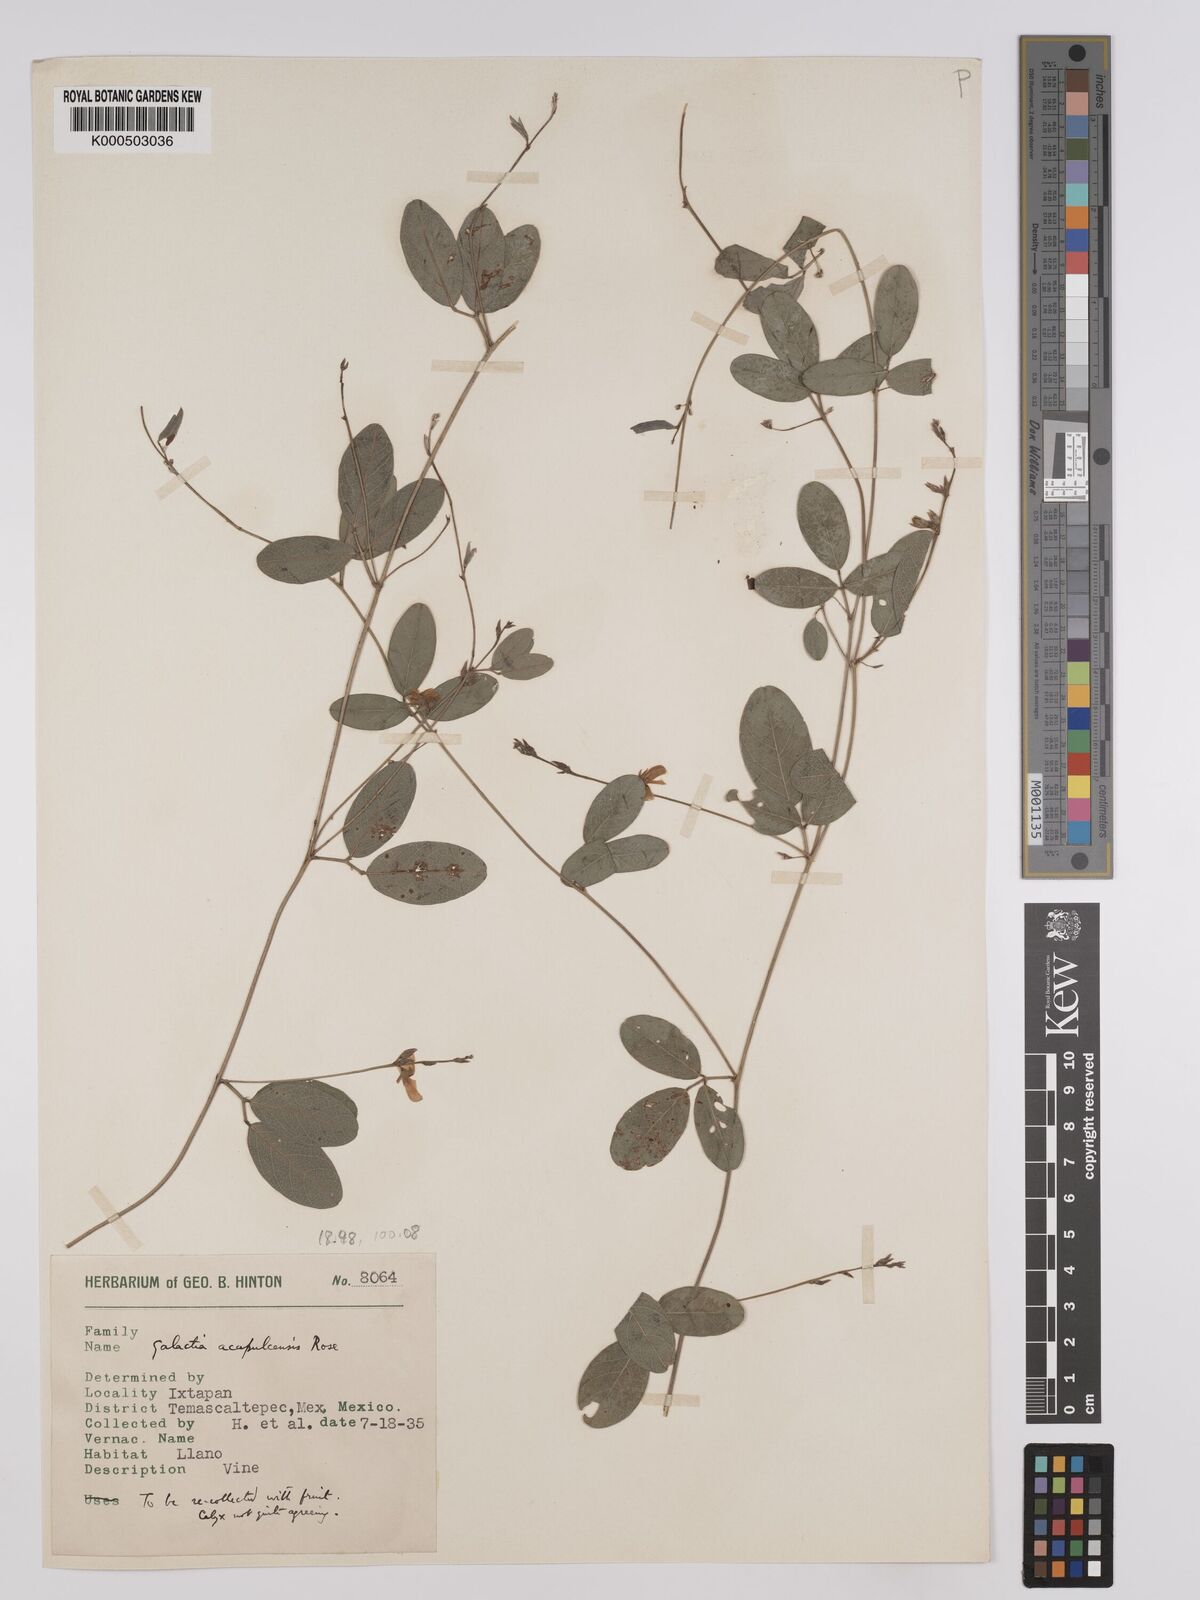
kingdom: Plantae
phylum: Tracheophyta
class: Magnoliopsida
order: Fabales
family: Fabaceae
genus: Galactia
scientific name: Galactia acapulcensis
